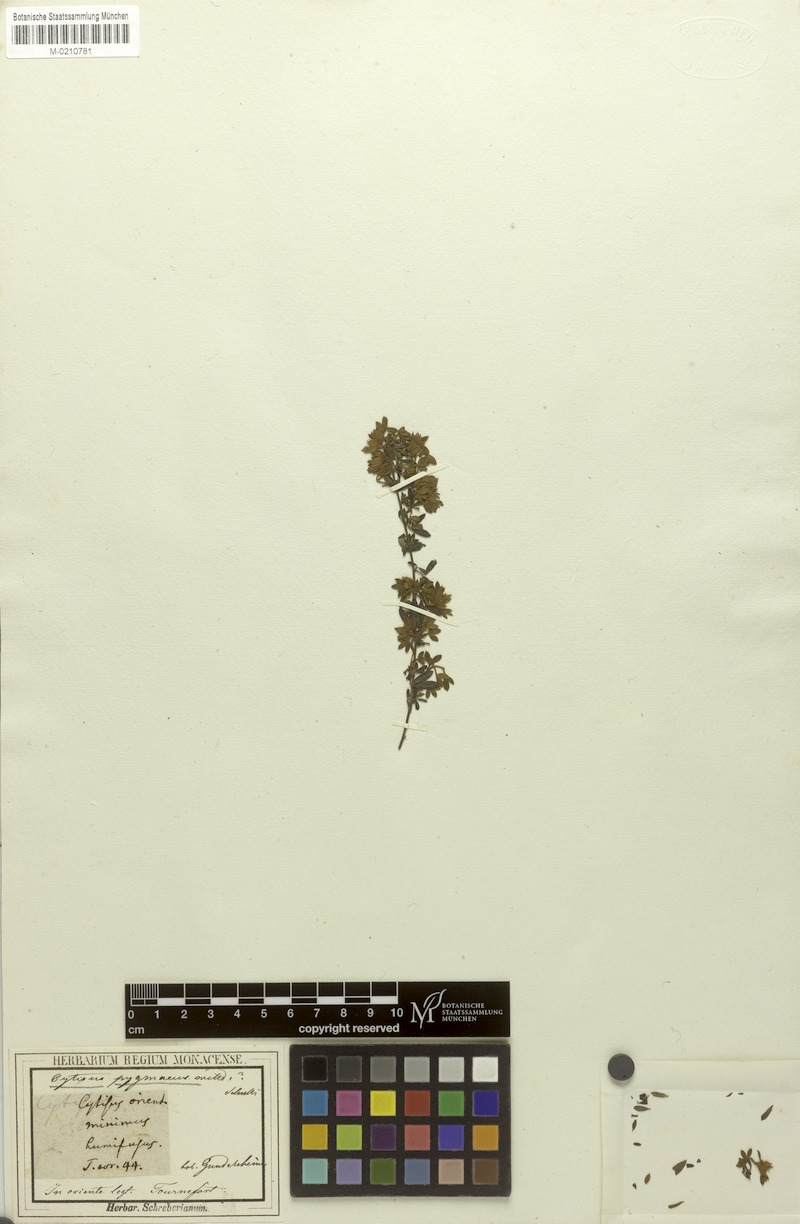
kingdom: Plantae
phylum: Tracheophyta
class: Magnoliopsida
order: Fabales
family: Fabaceae
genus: Chamaecytisus
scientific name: Chamaecytisus pygmaeus
